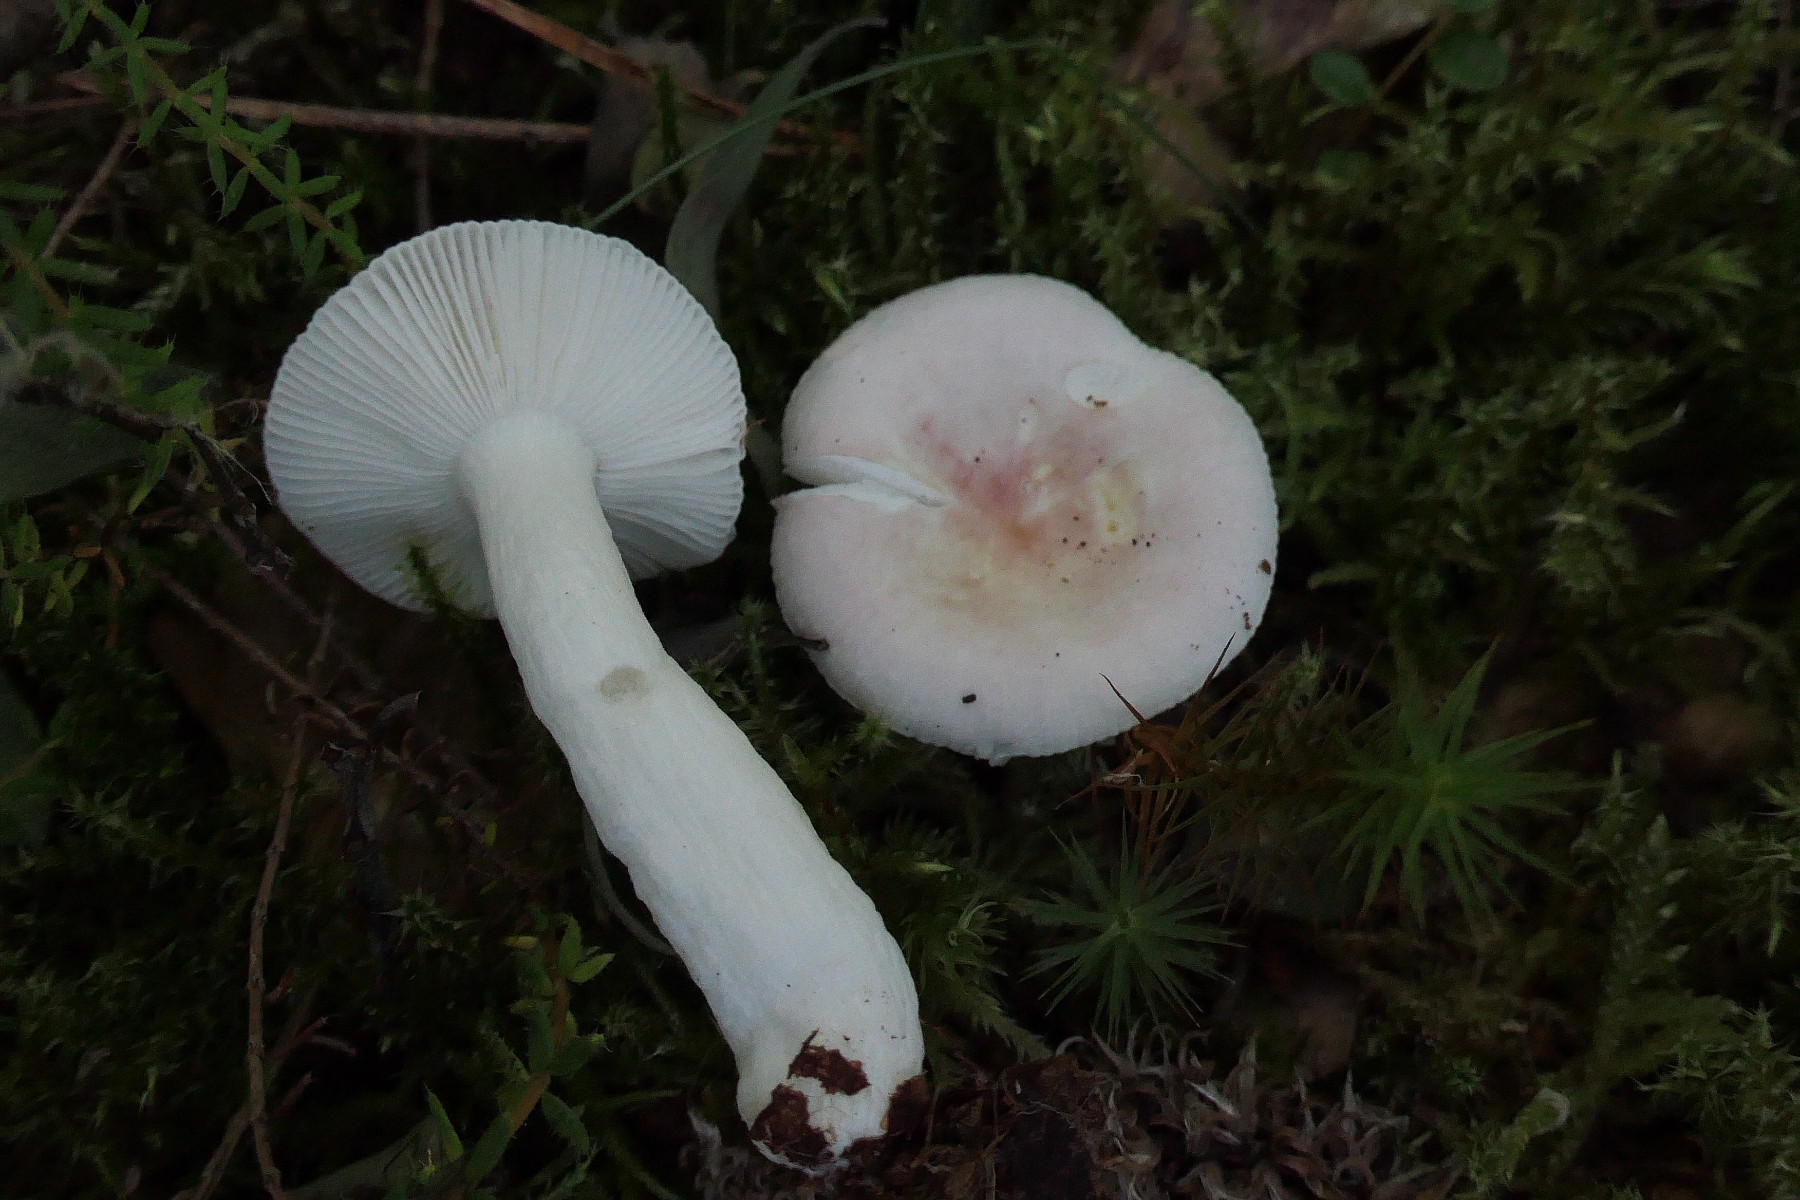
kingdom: Fungi
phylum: Basidiomycota
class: Agaricomycetes
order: Russulales
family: Russulaceae
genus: Russula
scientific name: Russula betularum
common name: bleg gift-skørhat
